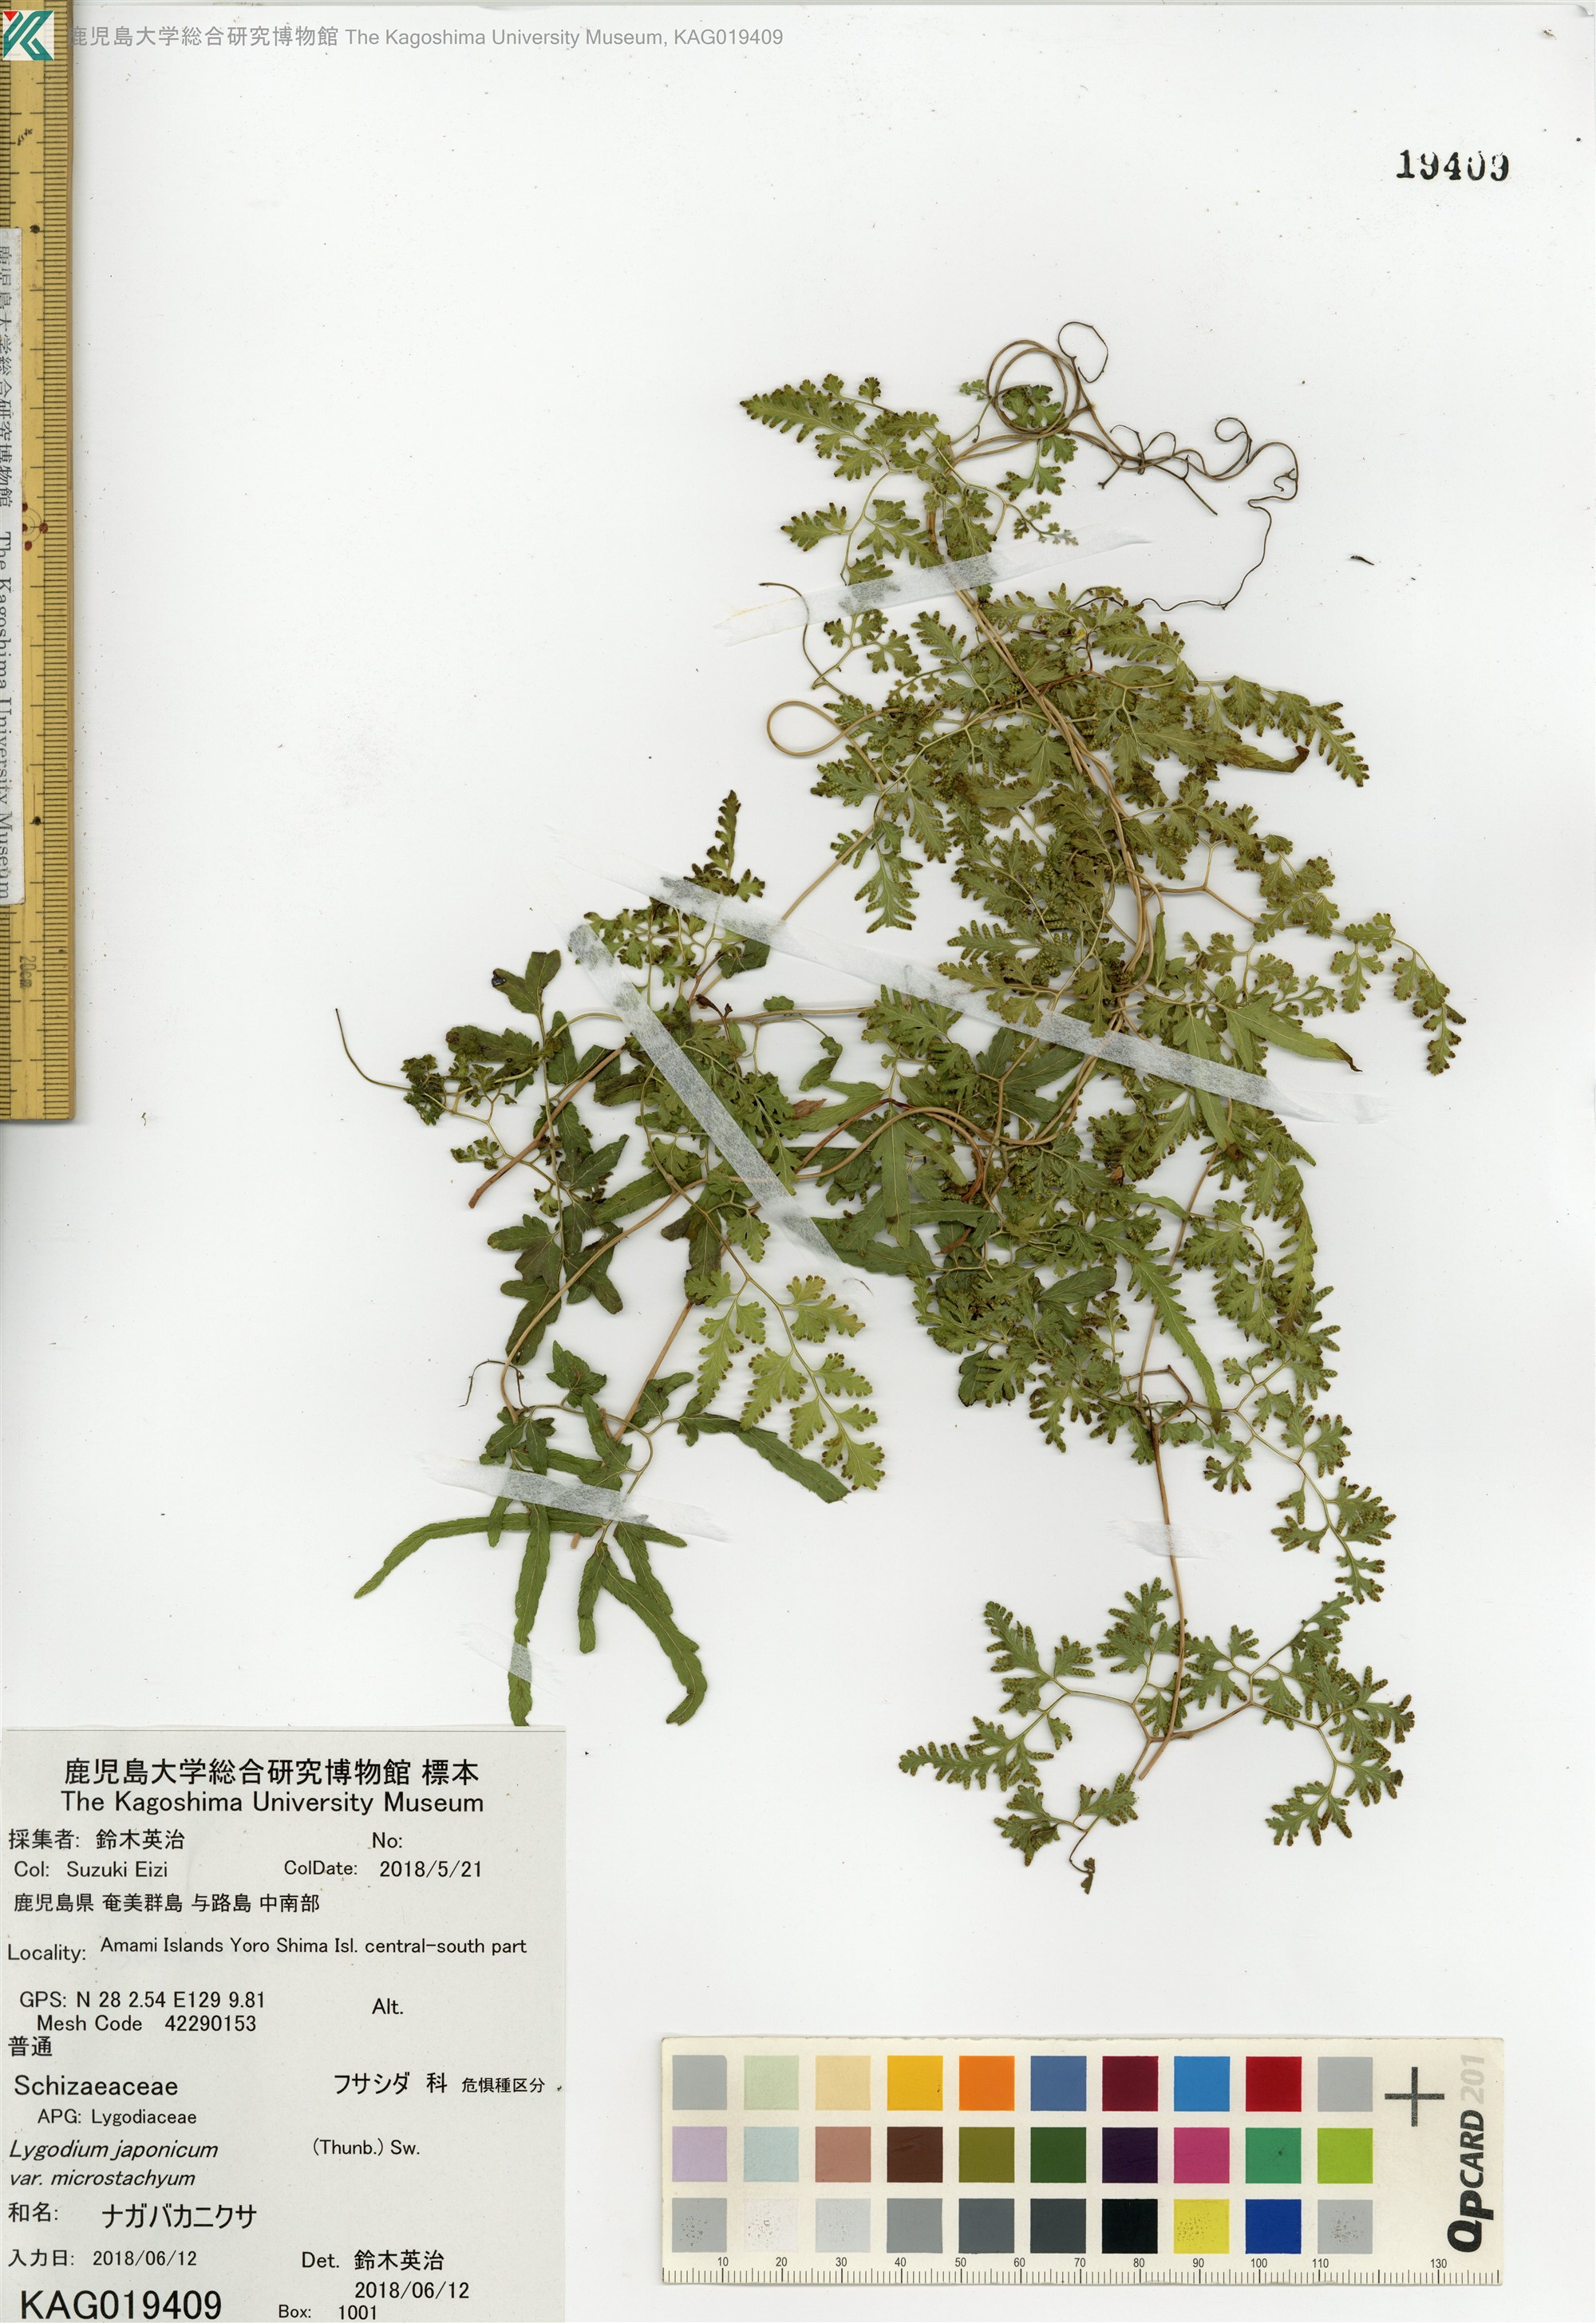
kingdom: Plantae
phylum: Tracheophyta
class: Polypodiopsida
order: Schizaeales
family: Lygodiaceae
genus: Lygodium
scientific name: Lygodium japonicum
